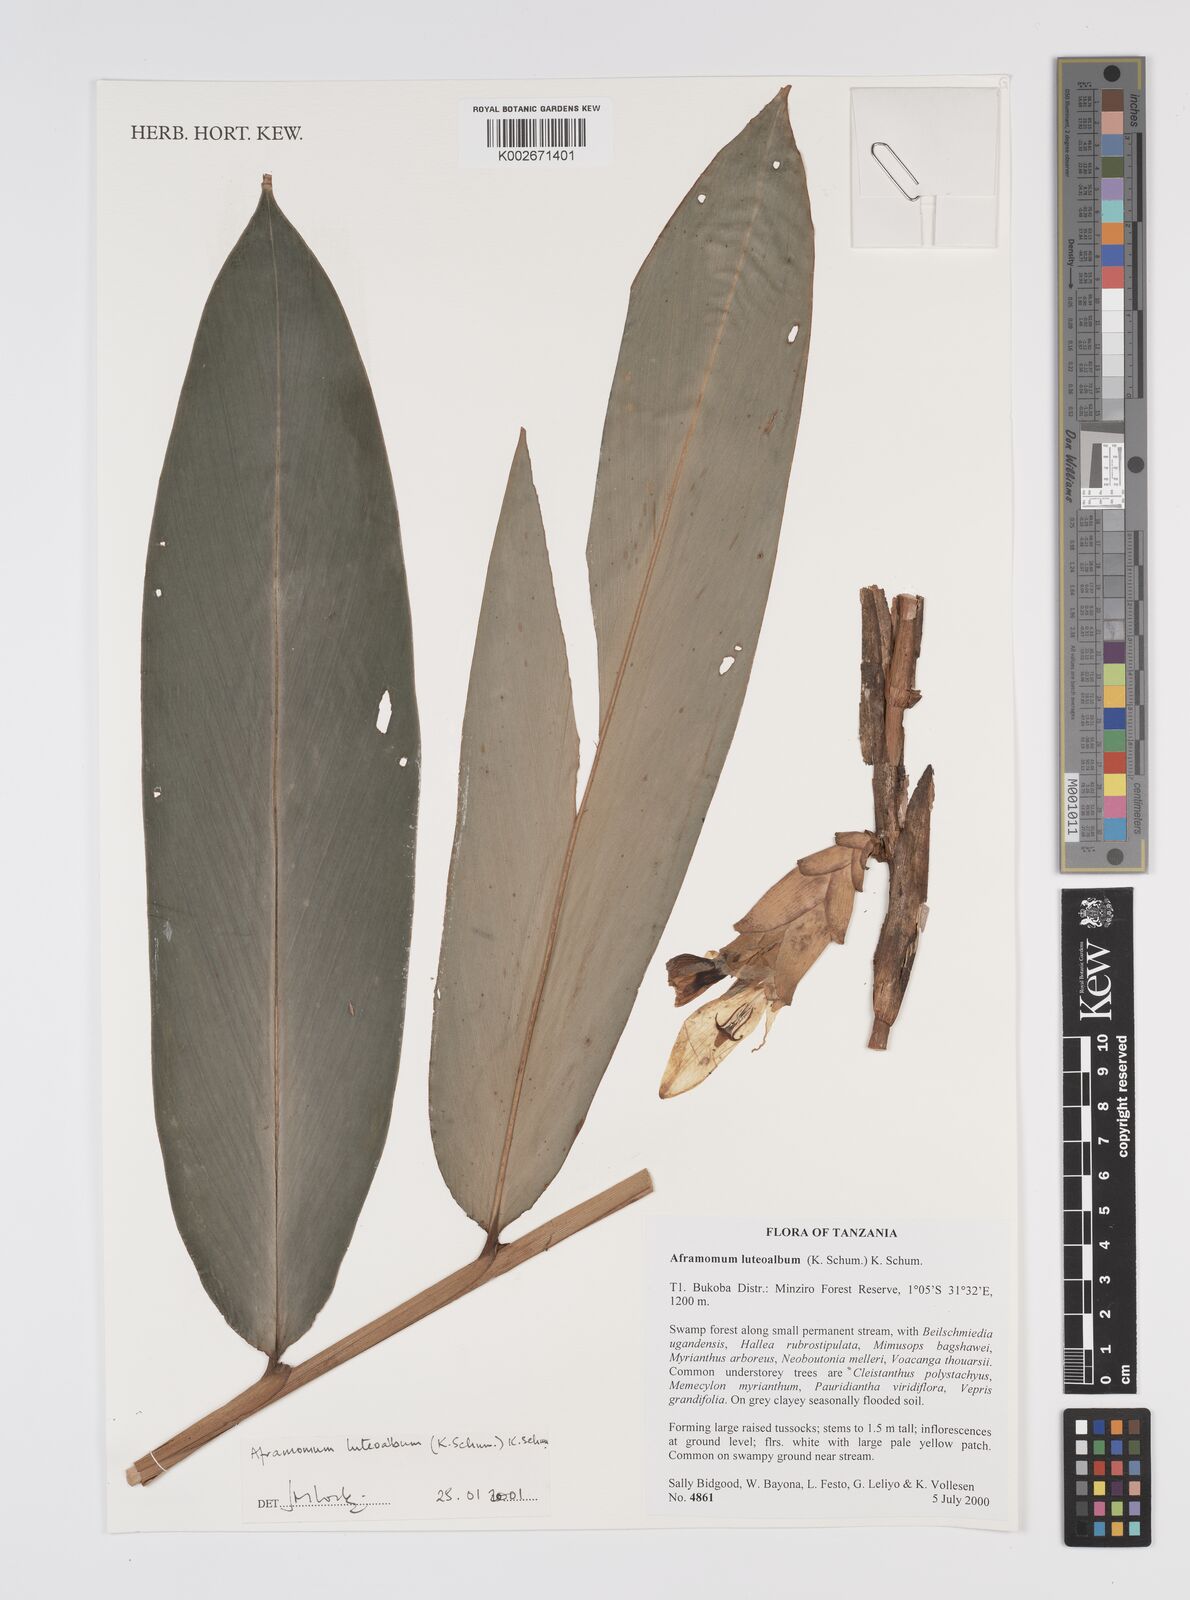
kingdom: Plantae
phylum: Tracheophyta
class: Liliopsida
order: Zingiberales
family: Zingiberaceae
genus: Aframomum
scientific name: Aframomum luteoalbum
